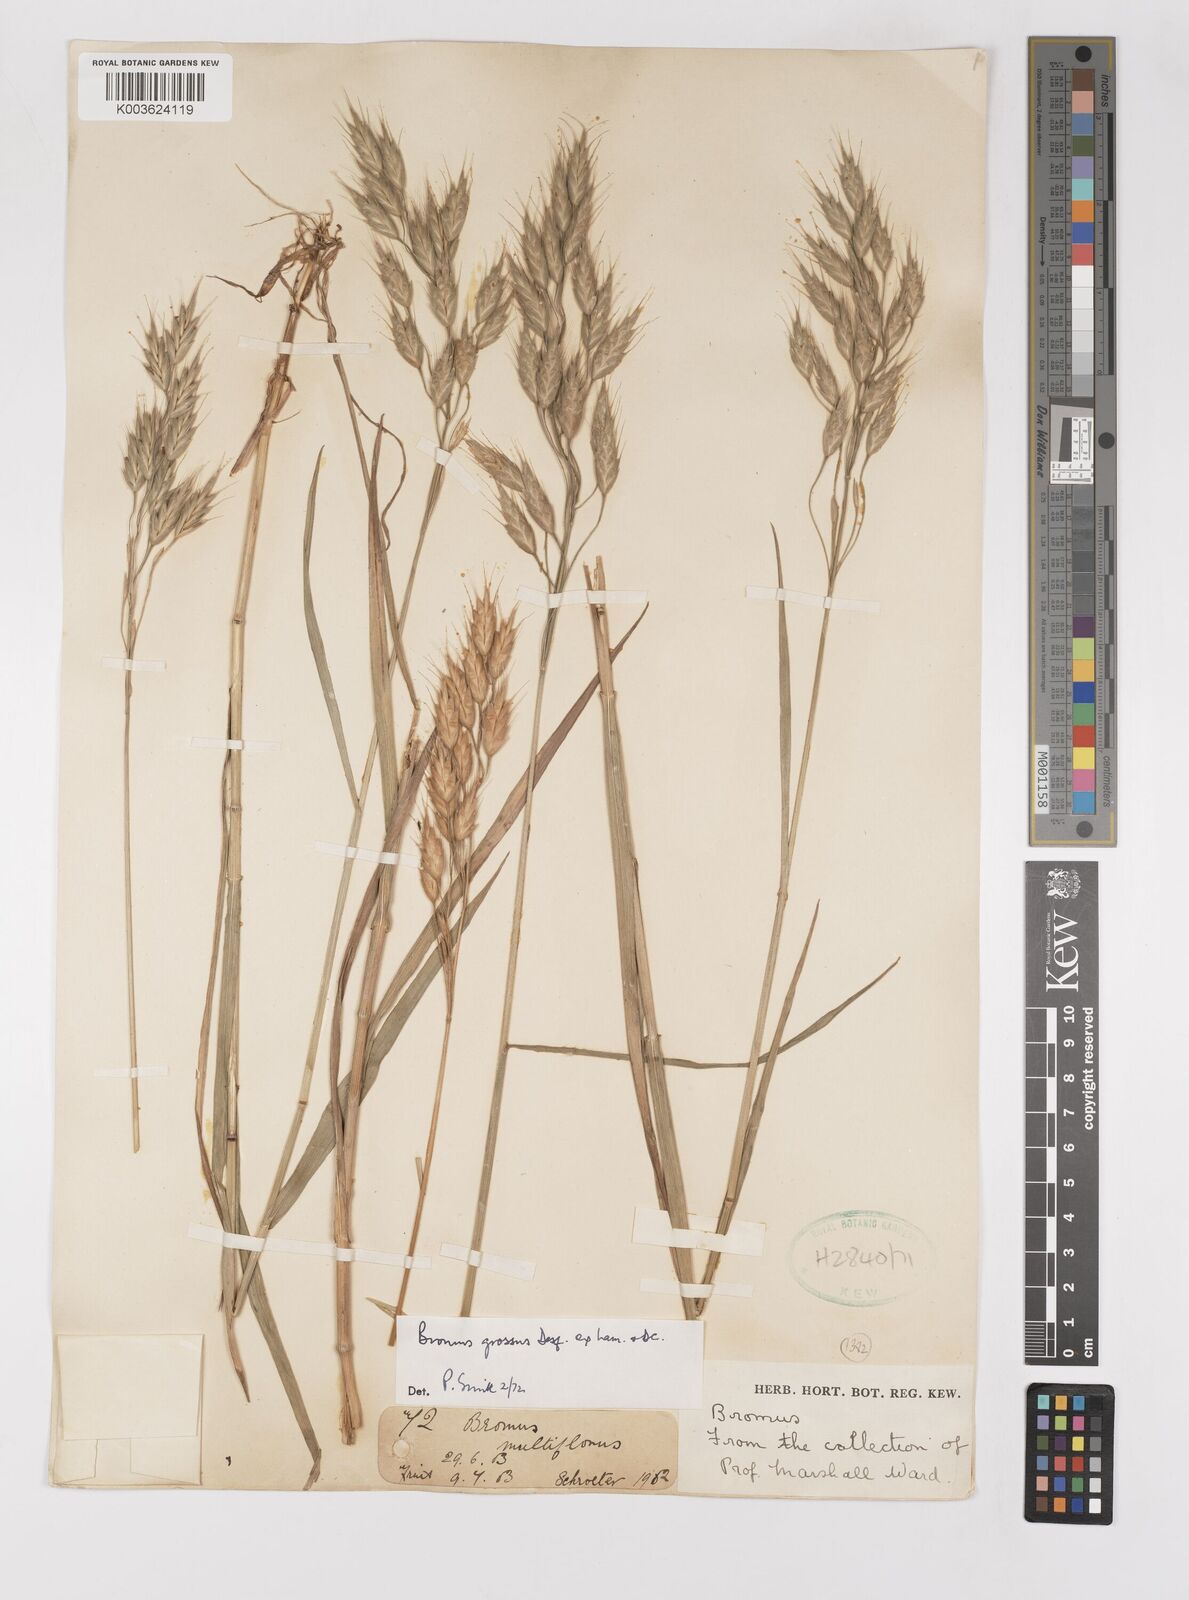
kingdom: Plantae
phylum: Tracheophyta
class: Liliopsida
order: Poales
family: Poaceae
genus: Bromus
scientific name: Bromus grossus
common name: Whiskered brome
